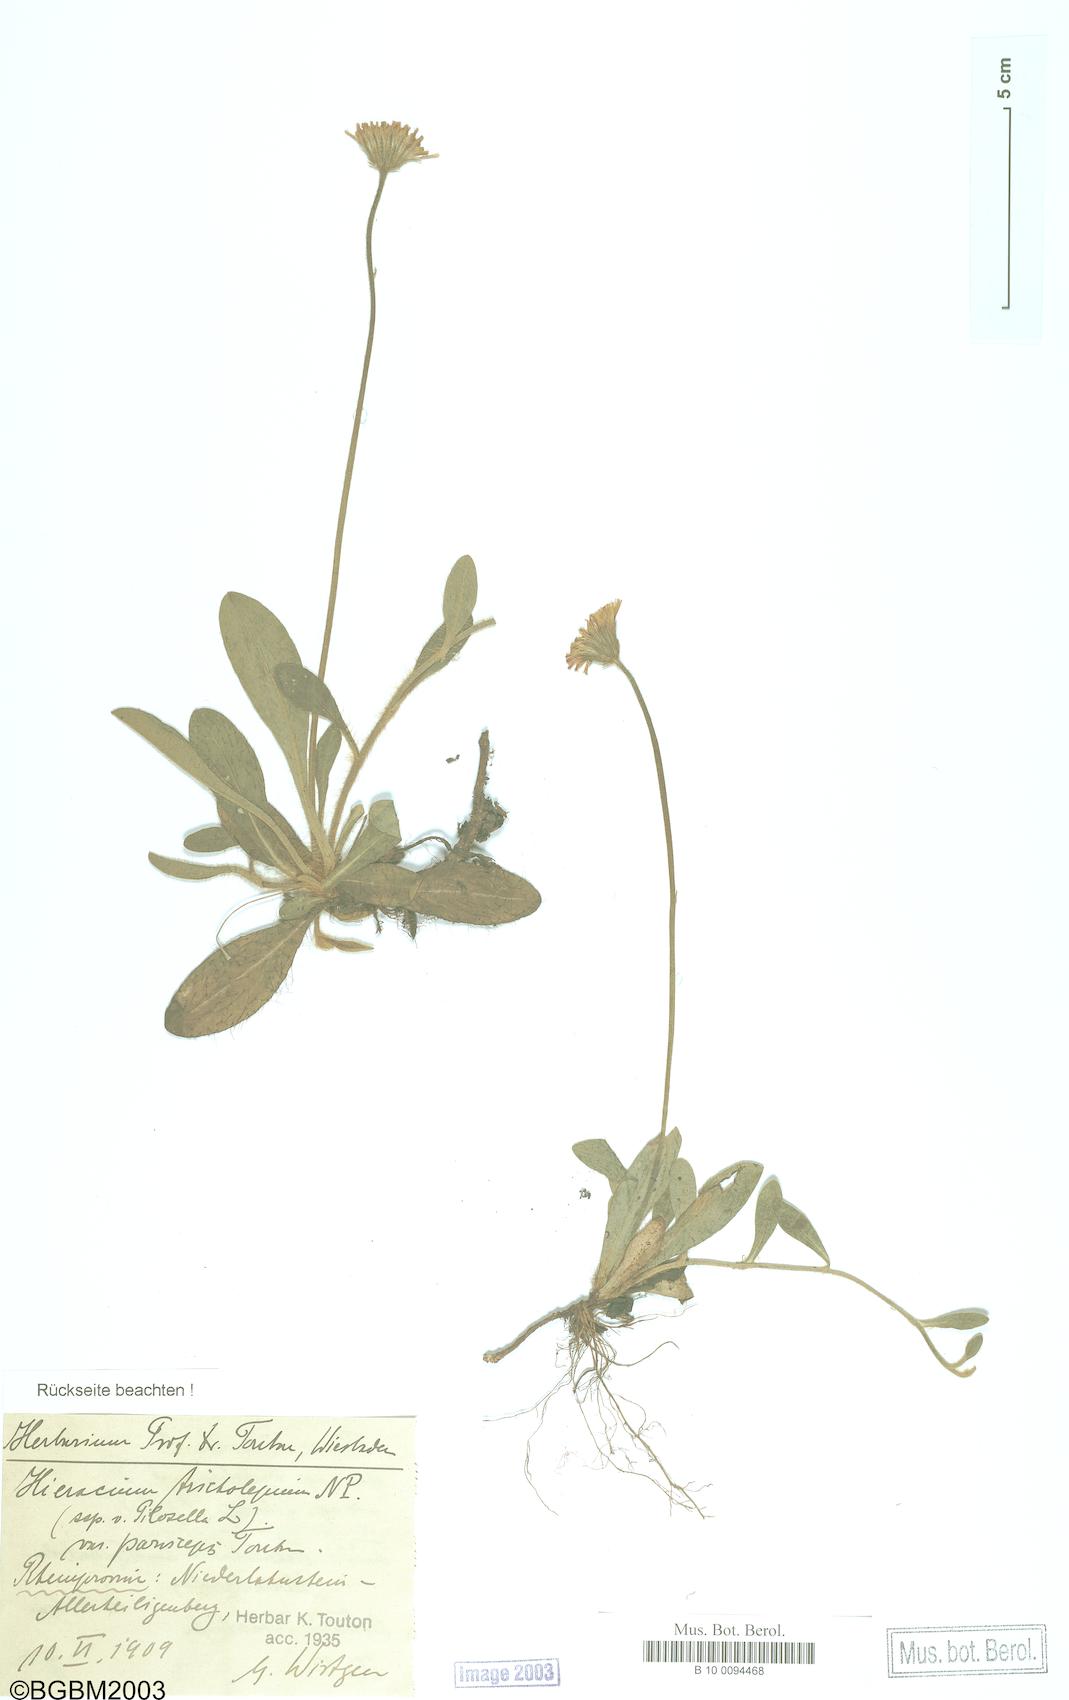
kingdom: Plantae
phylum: Tracheophyta
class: Magnoliopsida
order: Asterales
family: Asteraceae
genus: Pilosella
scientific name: Pilosella officinarum
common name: Mouse-ear hawkweed
